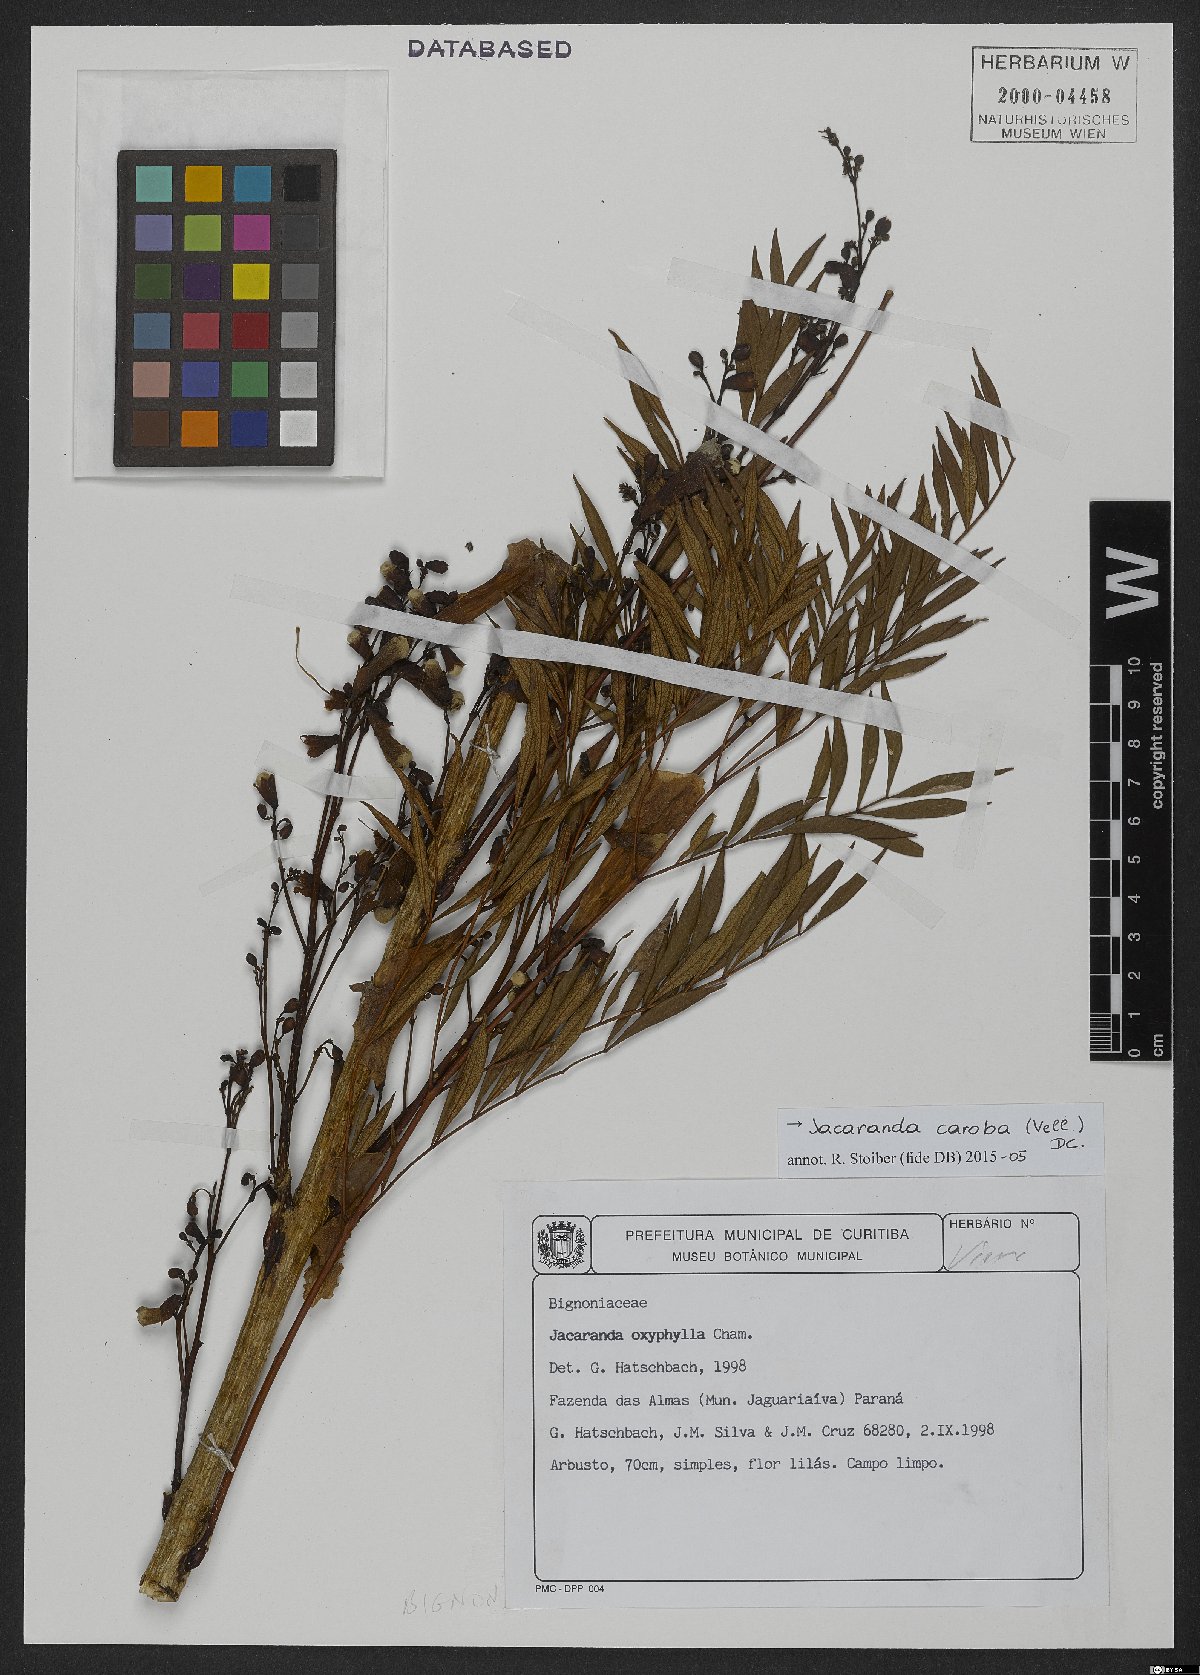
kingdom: Plantae
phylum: Tracheophyta
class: Magnoliopsida
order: Lamiales
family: Bignoniaceae
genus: Jacaranda
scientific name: Jacaranda caroba
